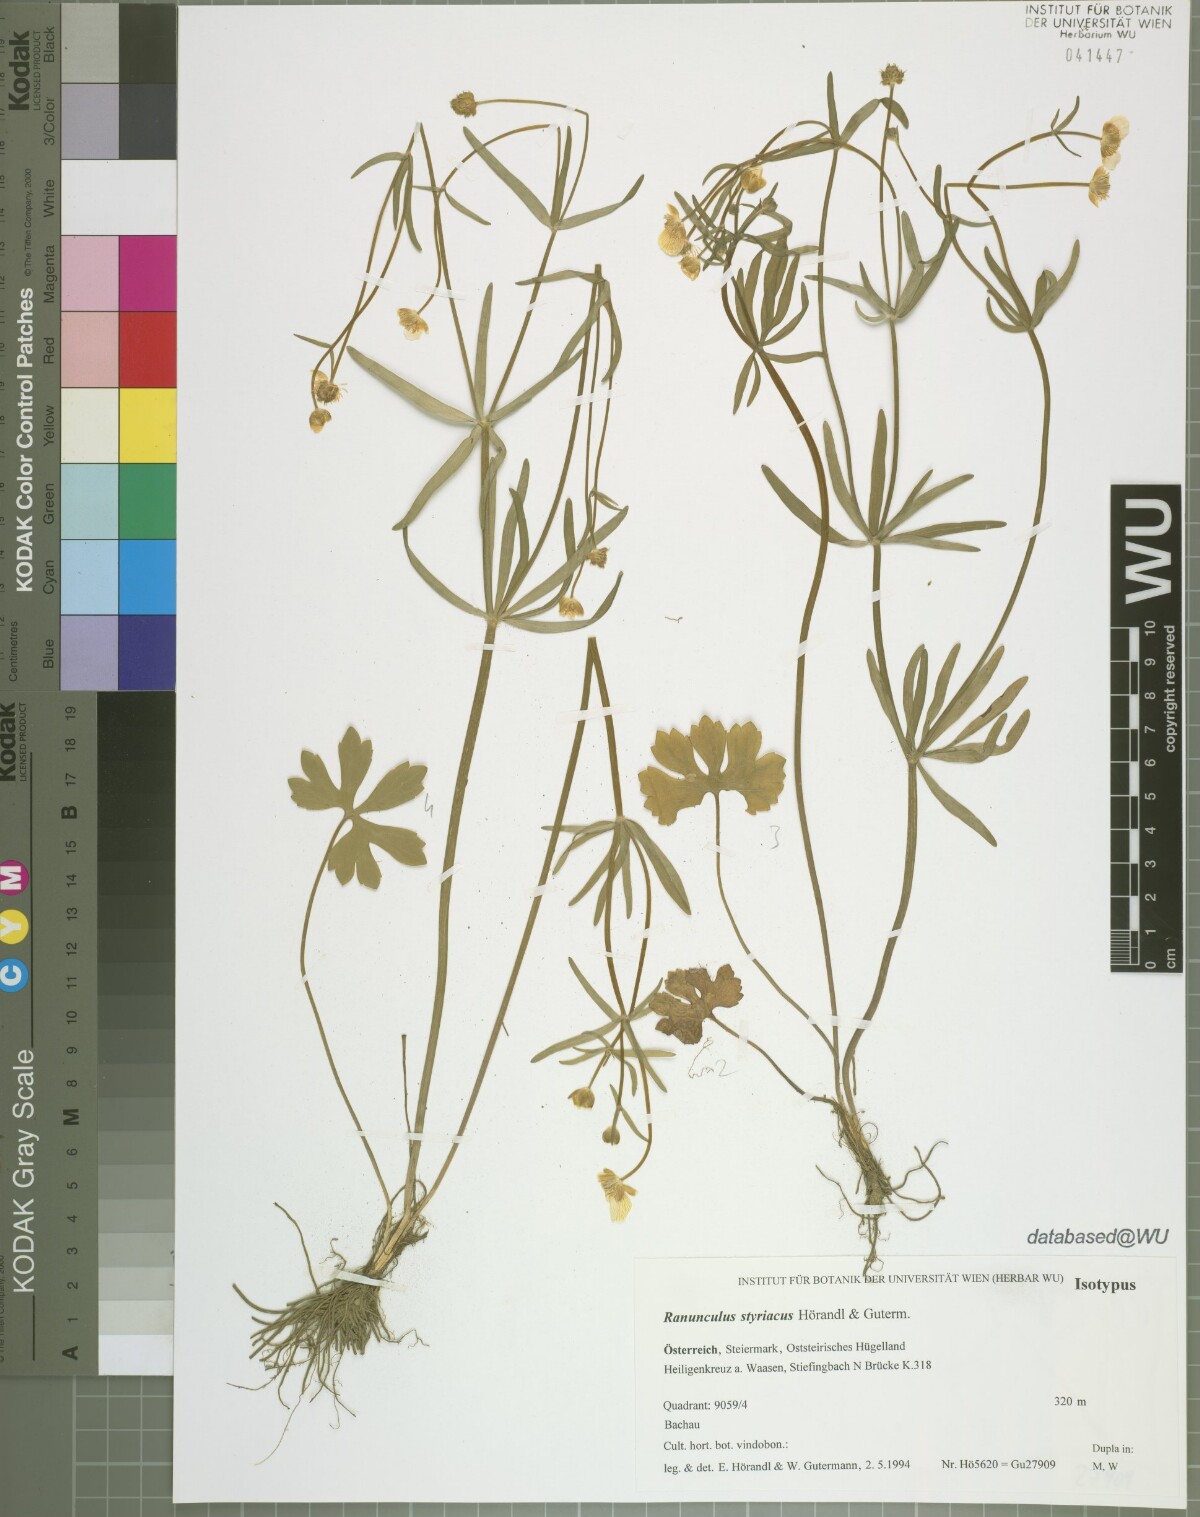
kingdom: Plantae
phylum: Tracheophyta
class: Magnoliopsida
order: Ranunculales
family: Ranunculaceae
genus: Ranunculus
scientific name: Ranunculus styriacus
